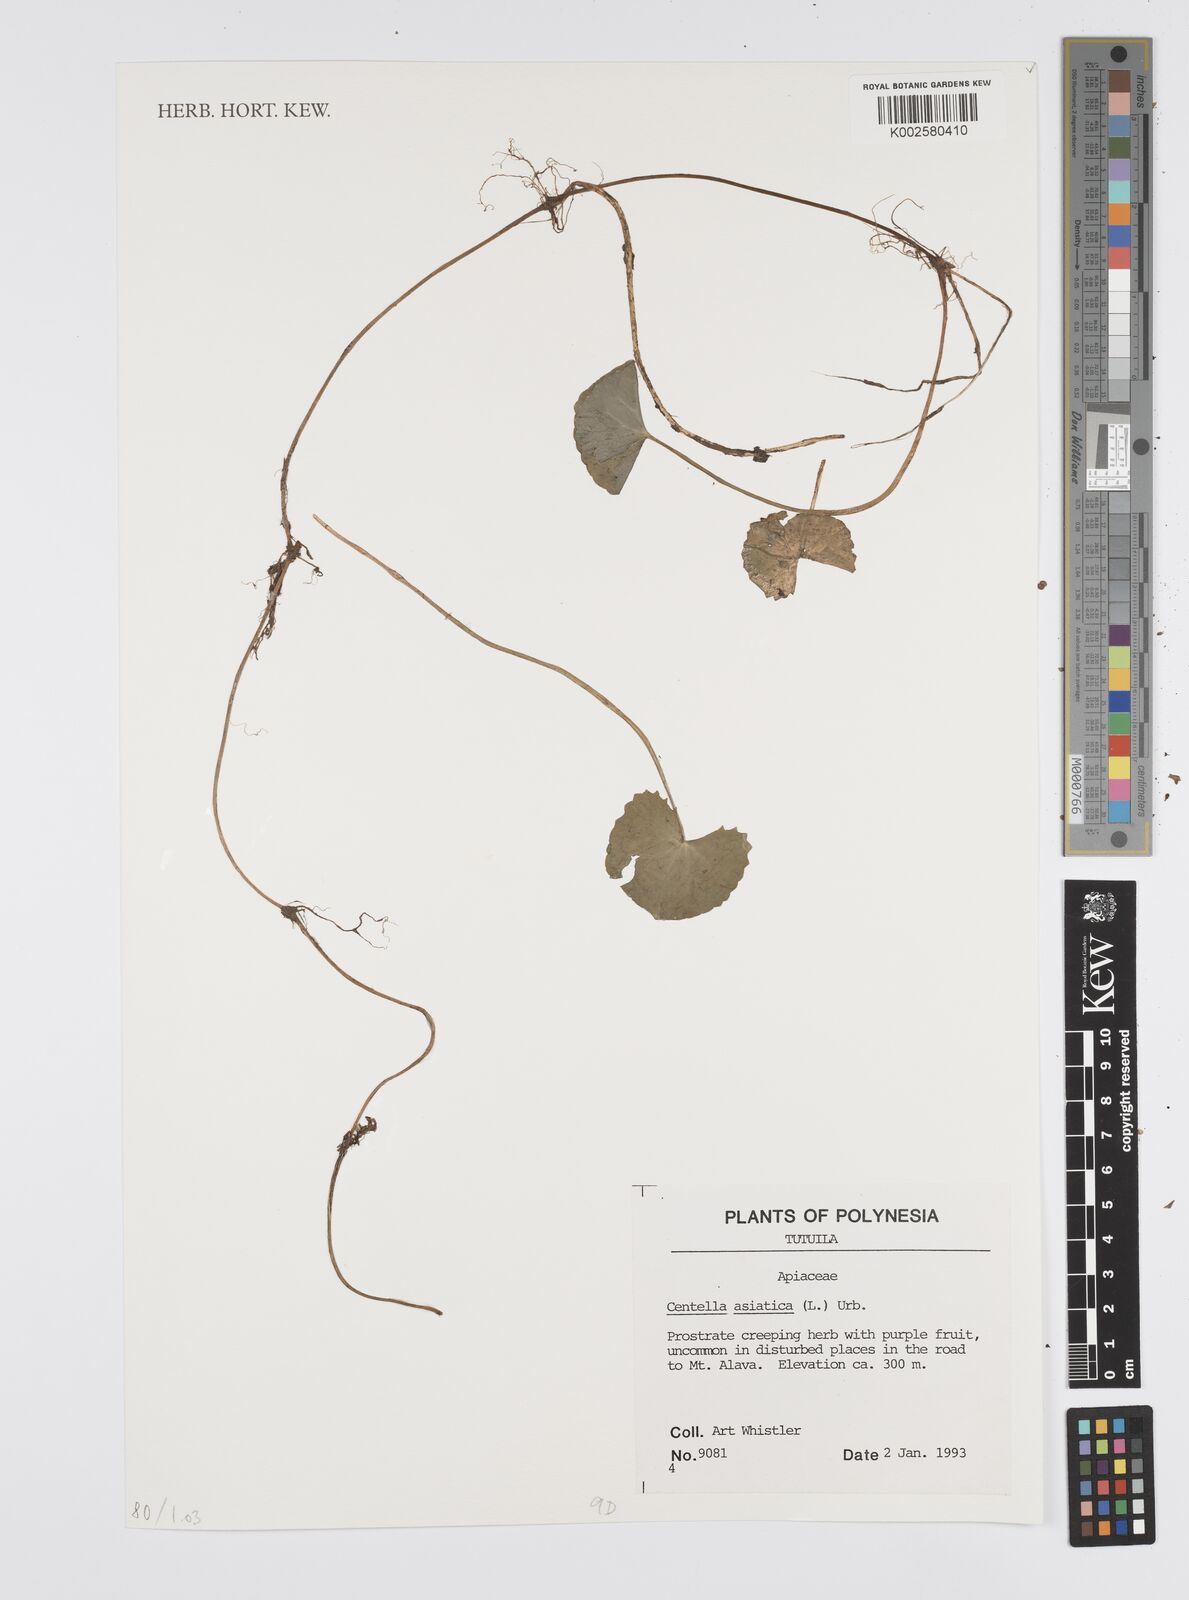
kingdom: Plantae
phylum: Tracheophyta
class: Magnoliopsida
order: Apiales
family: Apiaceae
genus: Centella
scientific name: Centella asiatica
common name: Spadeleaf
